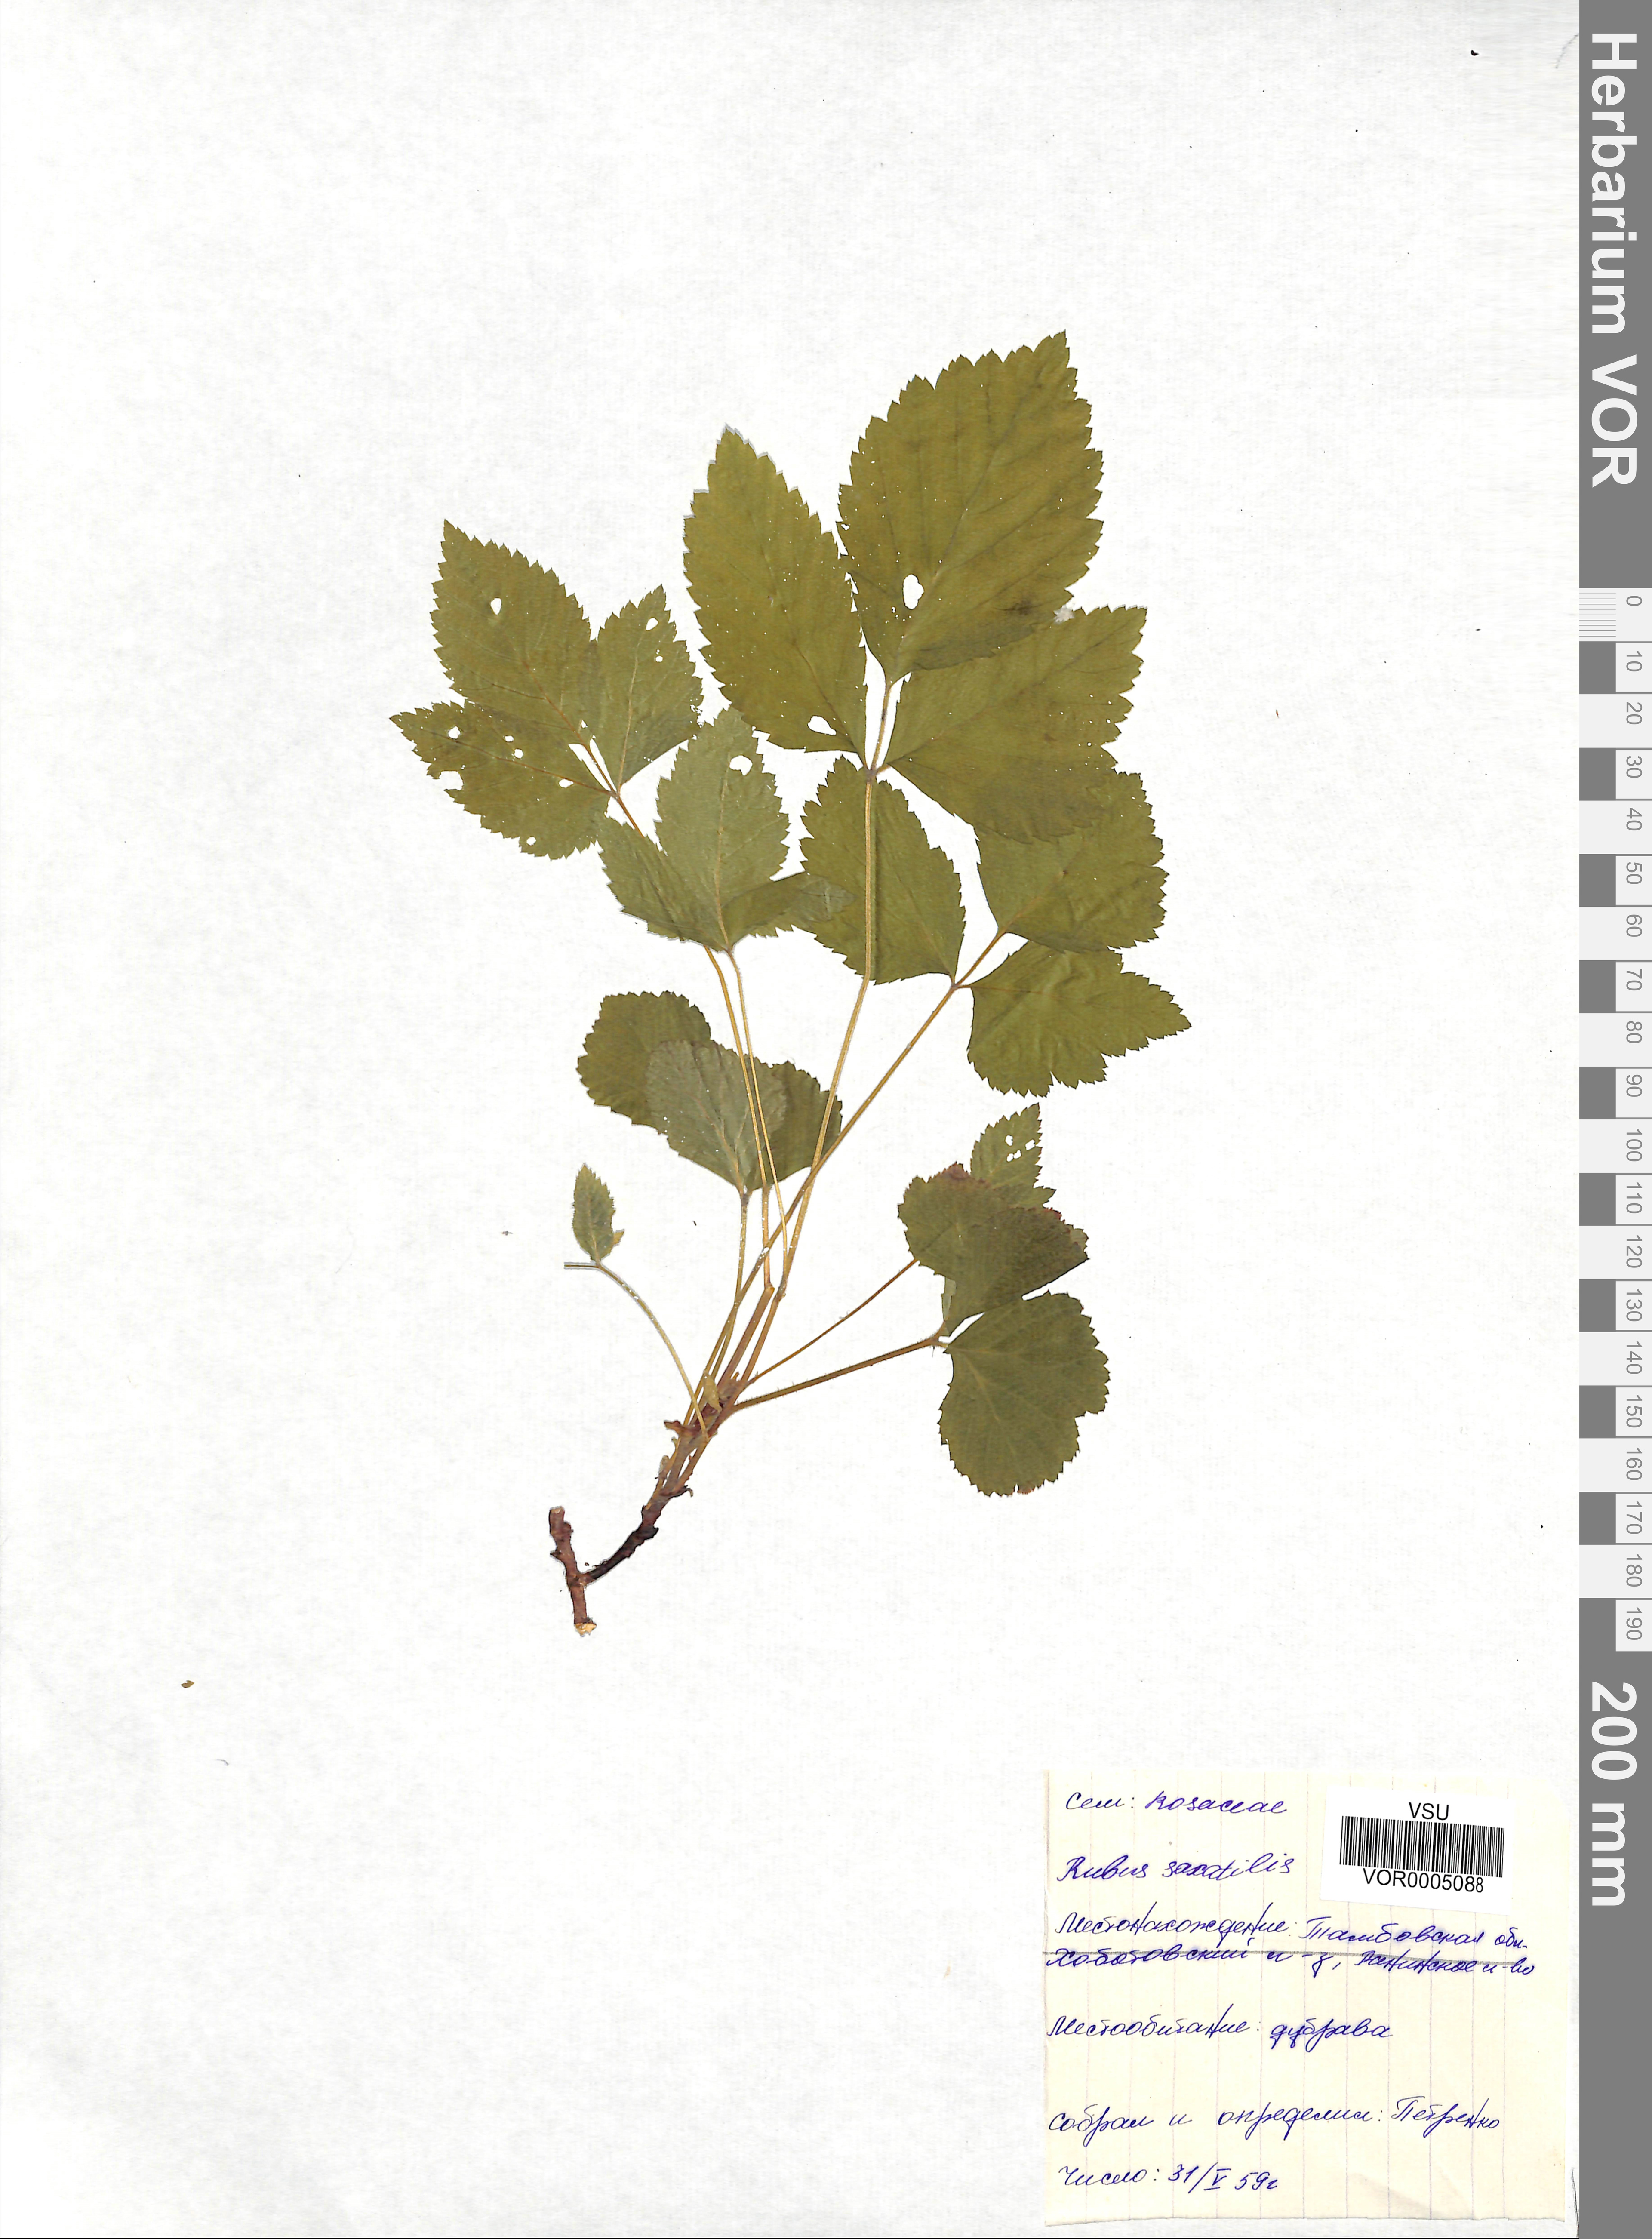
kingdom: Plantae
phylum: Tracheophyta
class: Magnoliopsida
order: Rosales
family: Rosaceae
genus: Rubus
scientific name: Rubus saxatilis
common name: Stone bramble
